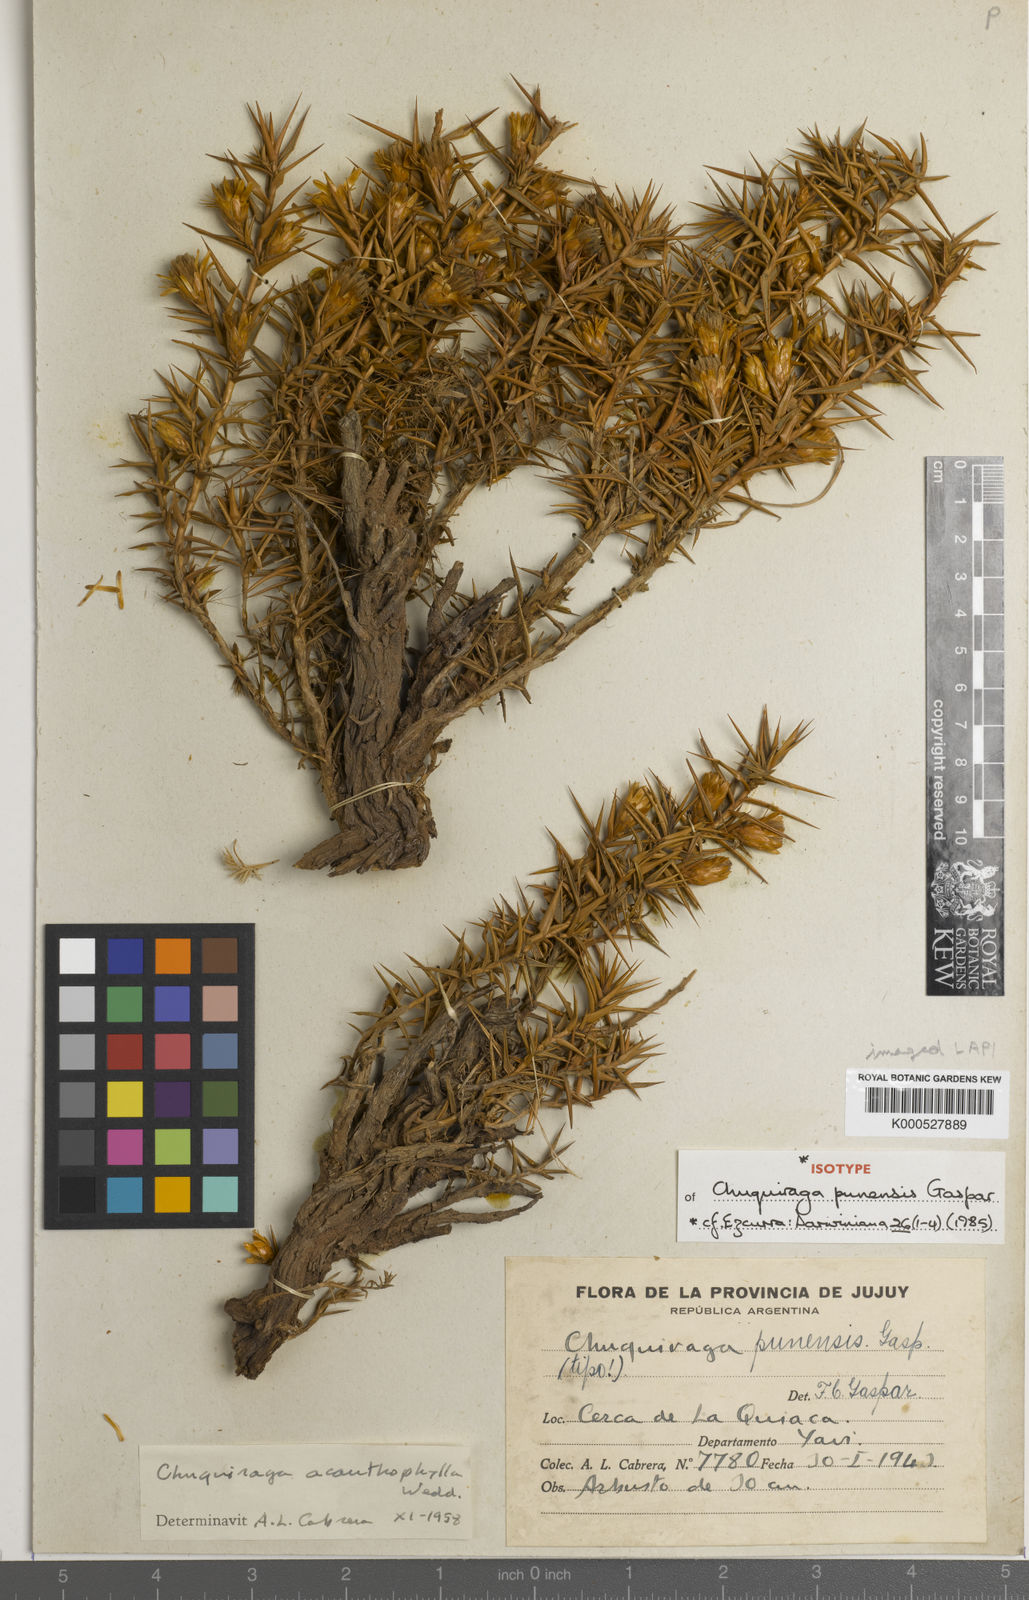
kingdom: Plantae
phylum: Tracheophyta
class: Magnoliopsida
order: Asterales
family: Asteraceae
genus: Chuquiraga
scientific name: Chuquiraga acanthophylla
